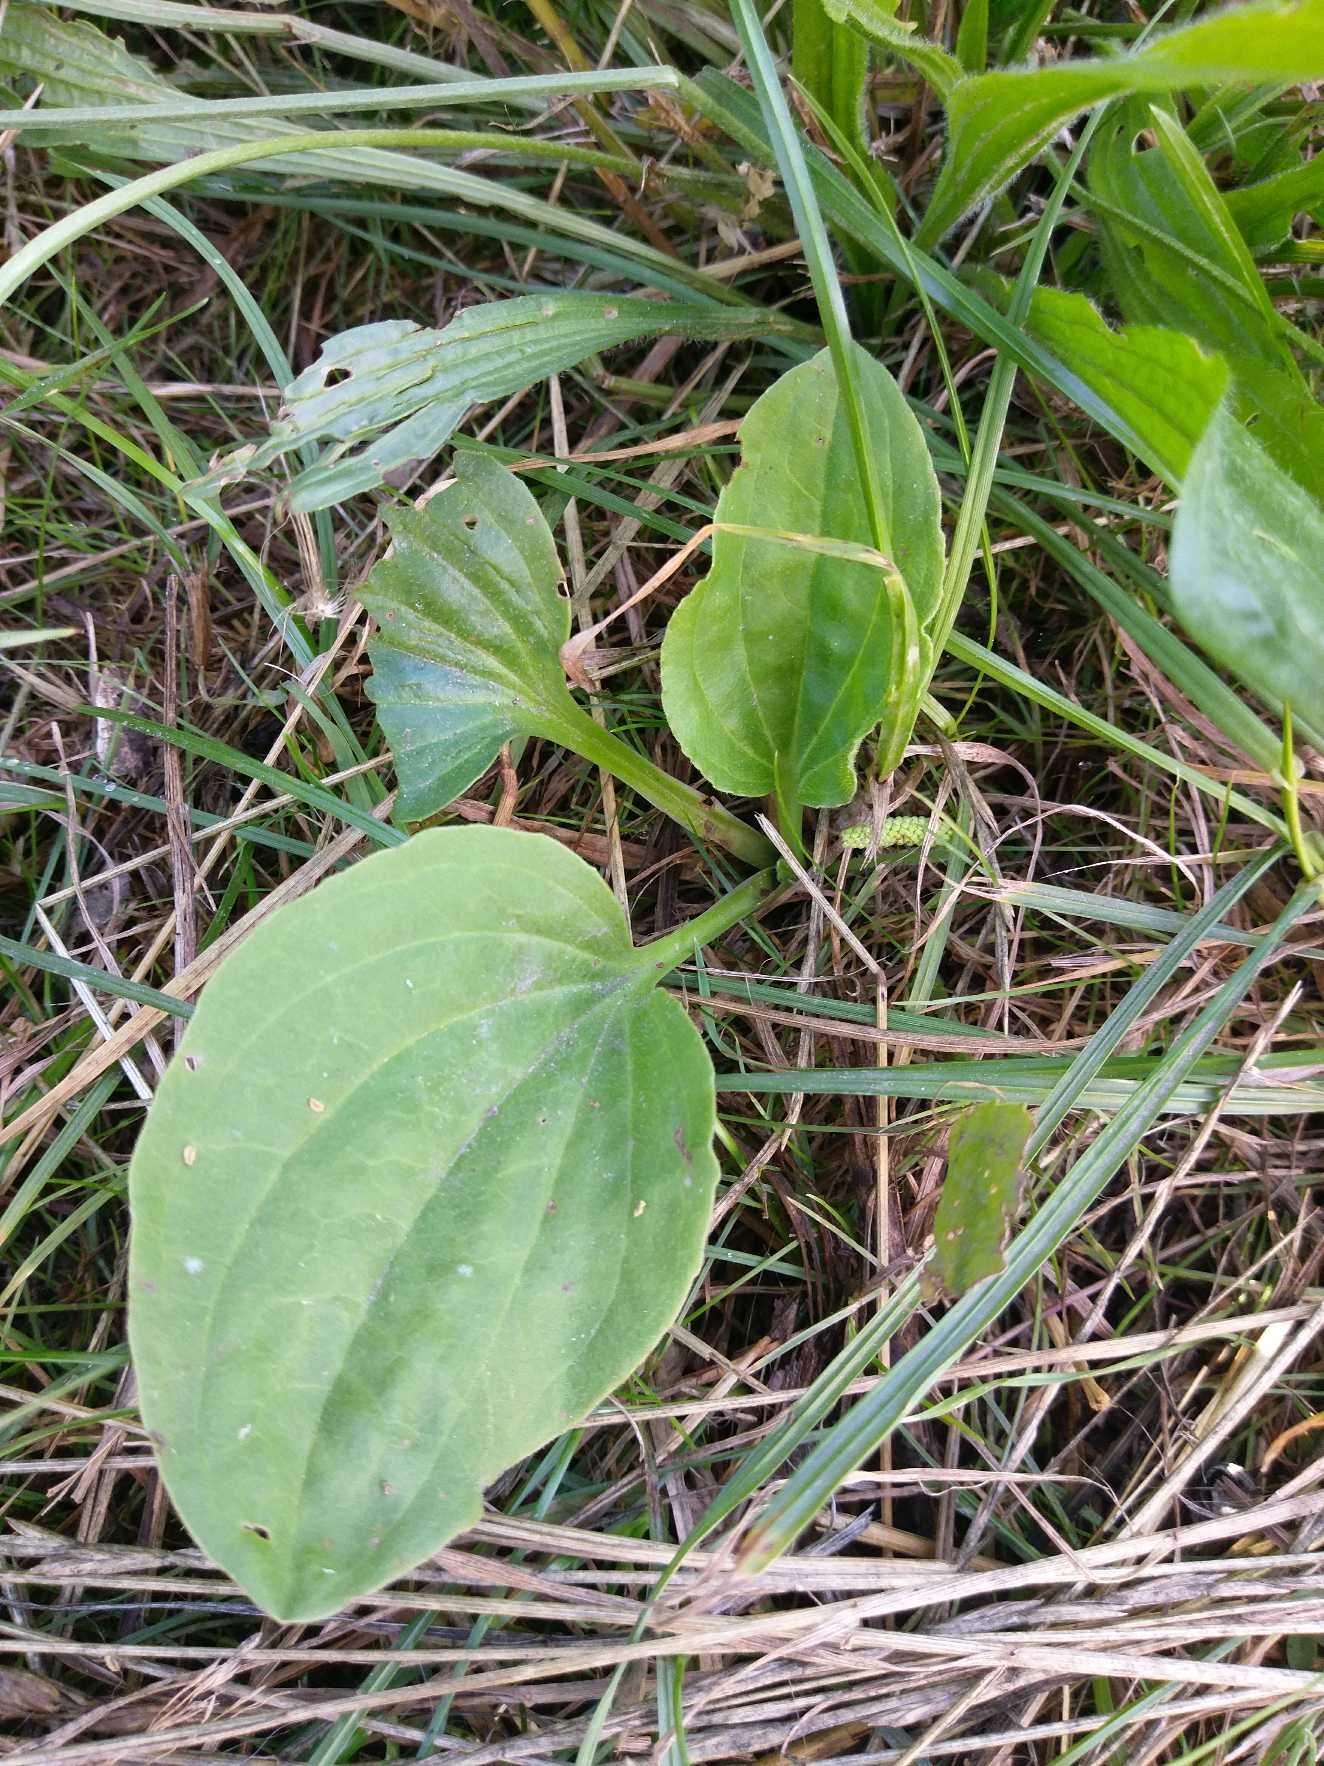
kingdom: Plantae
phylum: Tracheophyta
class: Magnoliopsida
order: Lamiales
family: Plantaginaceae
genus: Plantago
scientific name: Plantago major
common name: Glat vejbred
